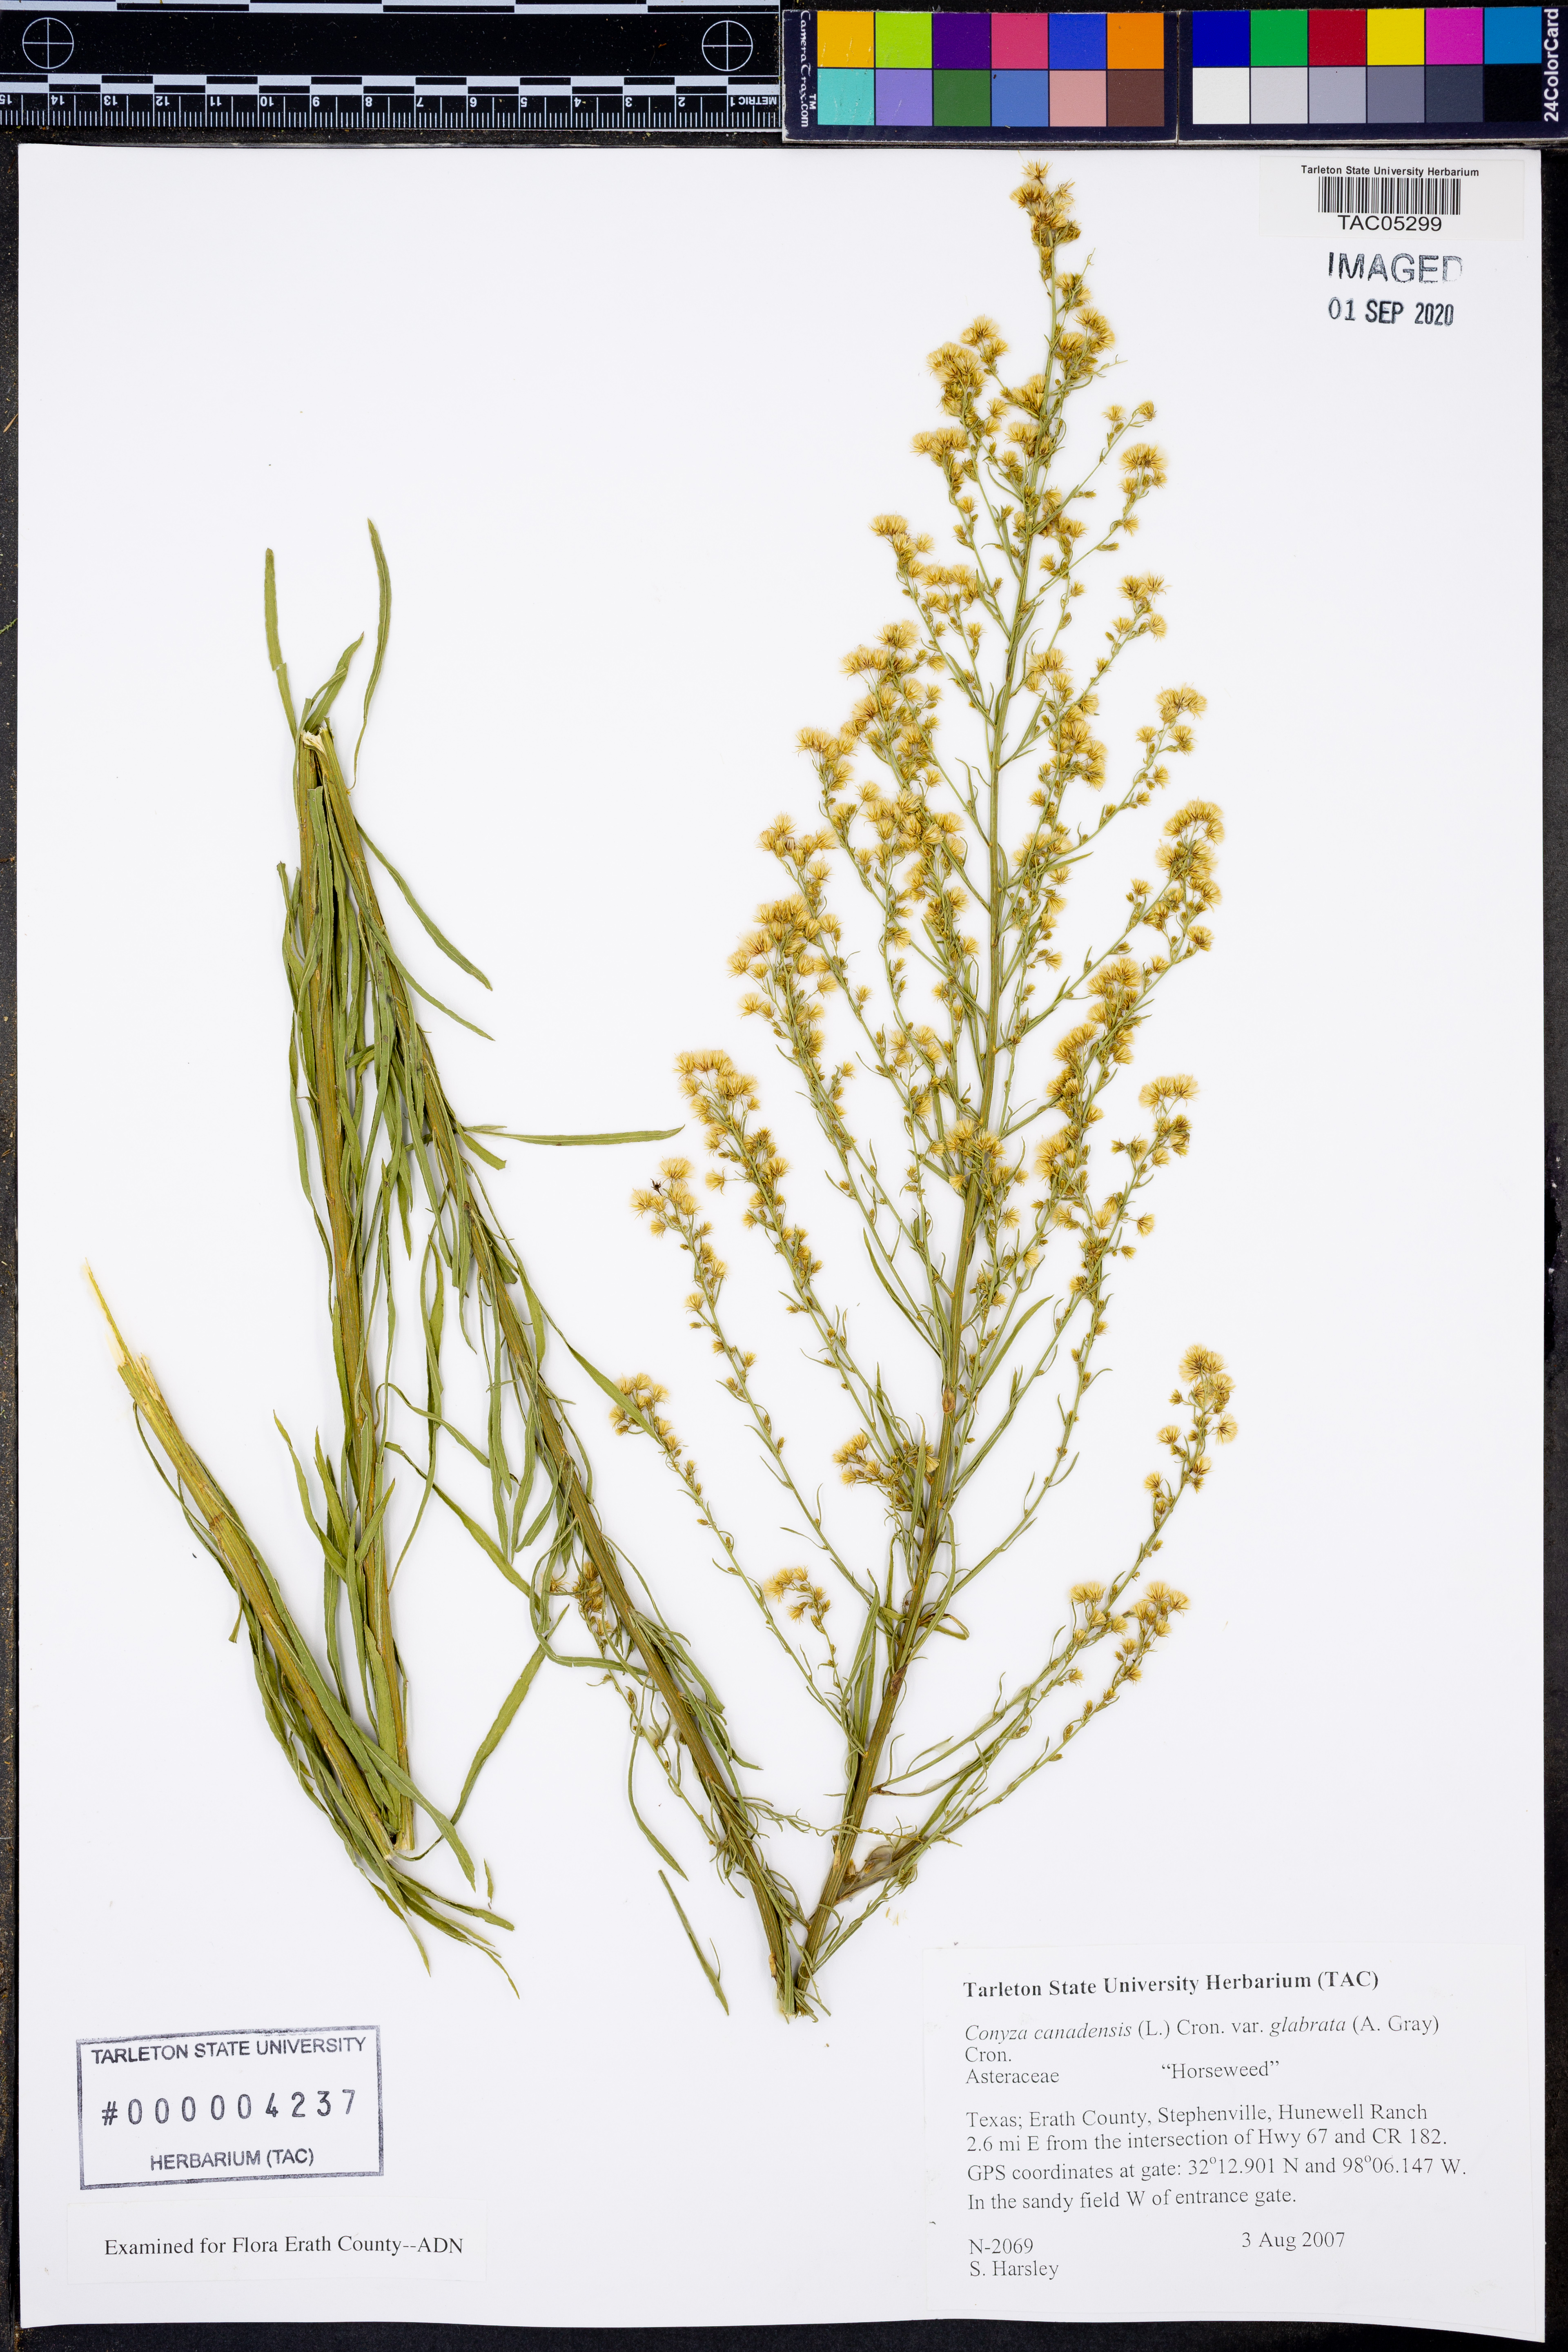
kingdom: Plantae
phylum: Tracheophyta
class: Magnoliopsida
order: Asterales
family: Asteraceae
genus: Erigeron
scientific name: Erigeron canadensis
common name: Canadian fleabane
